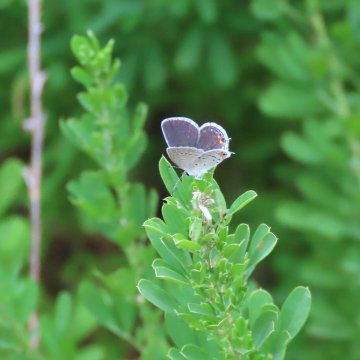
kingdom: Animalia
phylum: Arthropoda
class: Insecta
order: Lepidoptera
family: Lycaenidae
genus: Elkalyce
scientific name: Elkalyce comyntas
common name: Eastern Tailed-Blue
